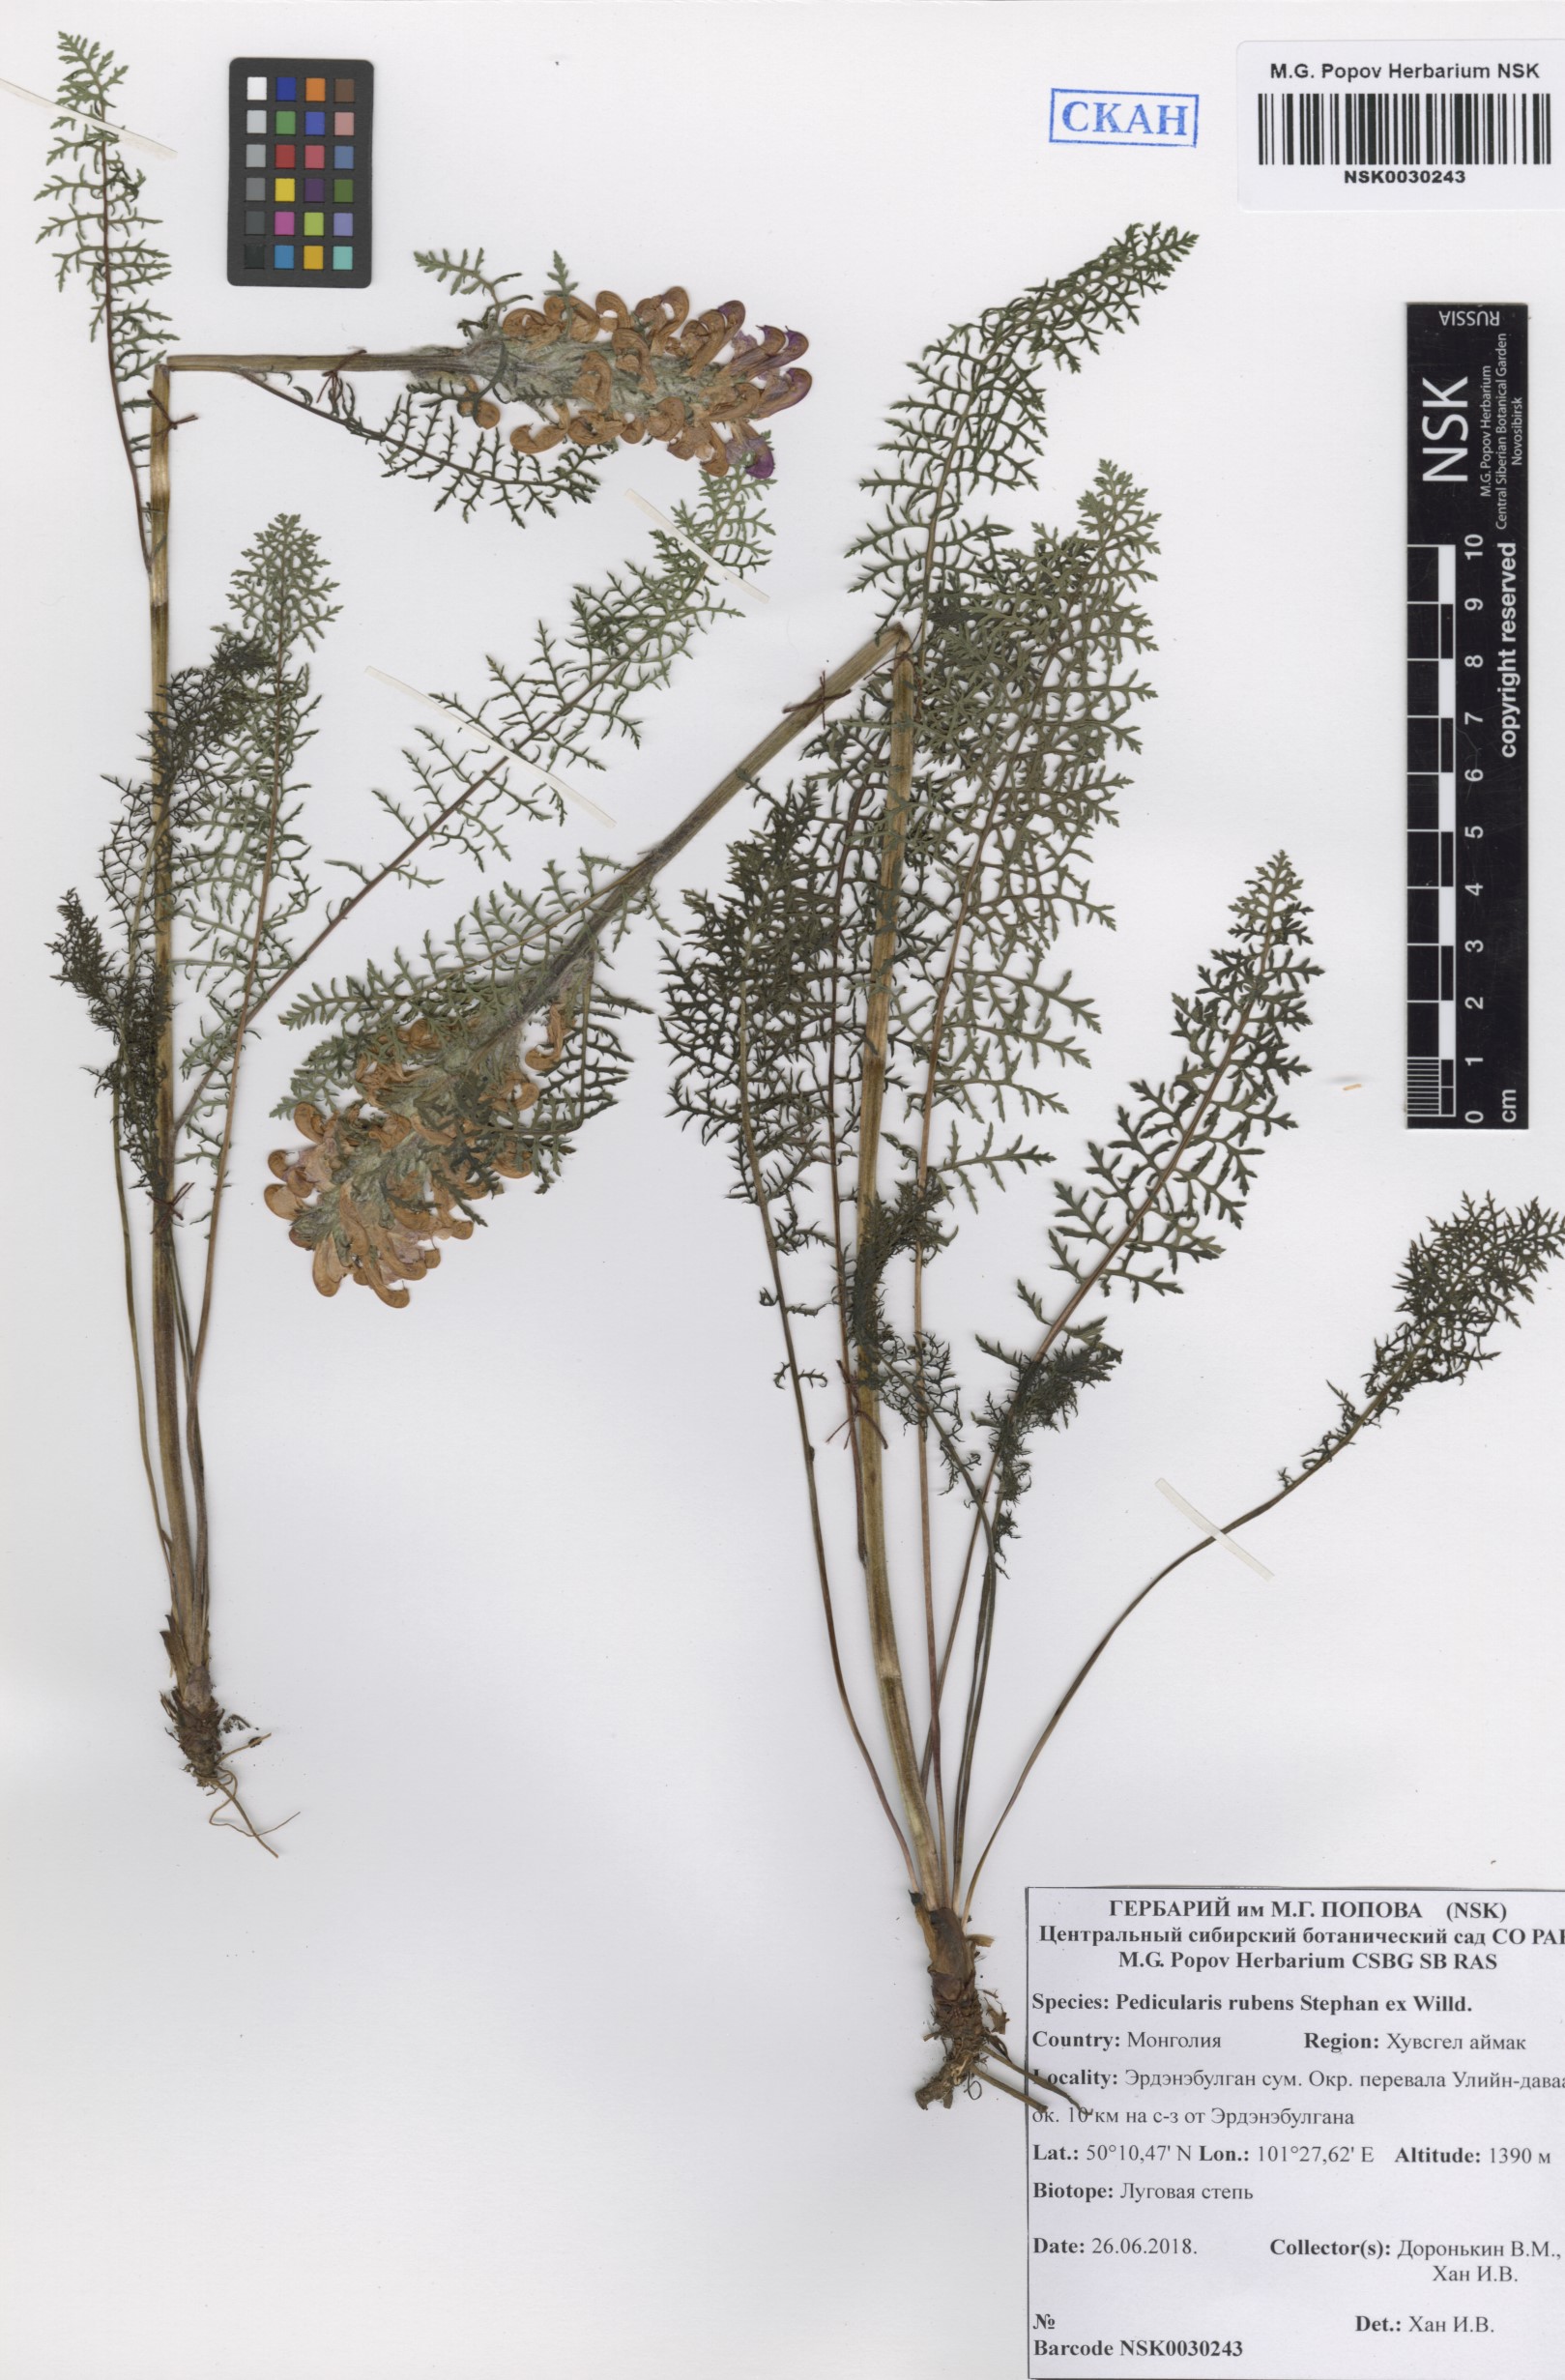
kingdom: Plantae
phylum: Tracheophyta
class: Magnoliopsida
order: Lamiales
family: Orobanchaceae
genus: Pedicularis
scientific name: Pedicularis rubens
